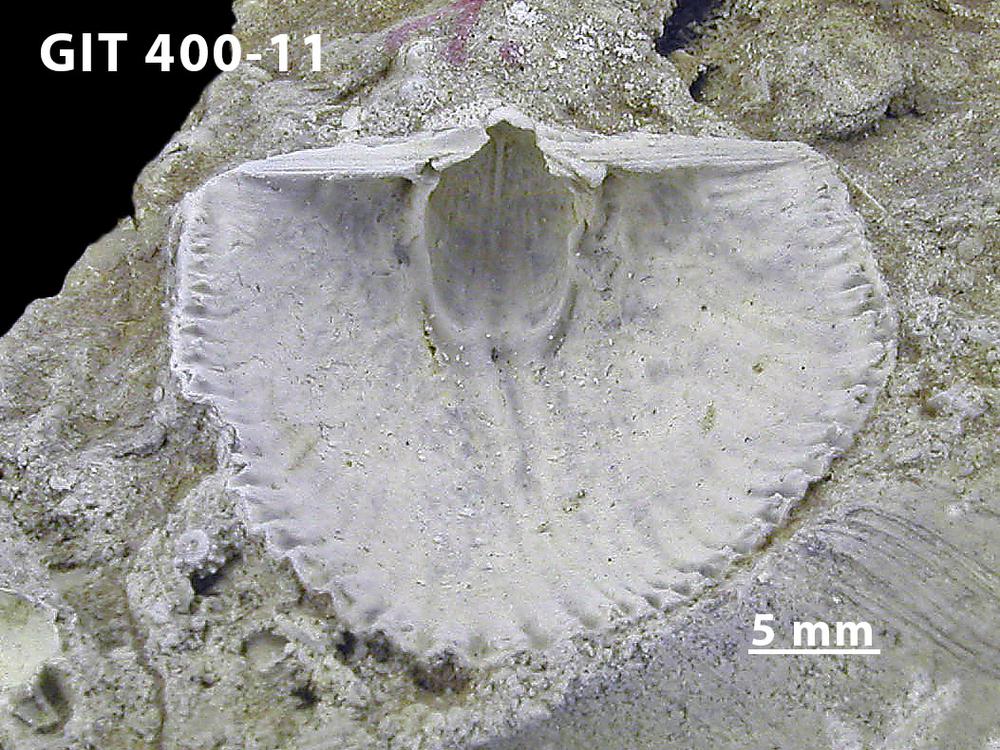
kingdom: Animalia
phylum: Brachiopoda
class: Rhynchonellata
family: Orthidae
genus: Cyrtonotella
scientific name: Cyrtonotella
